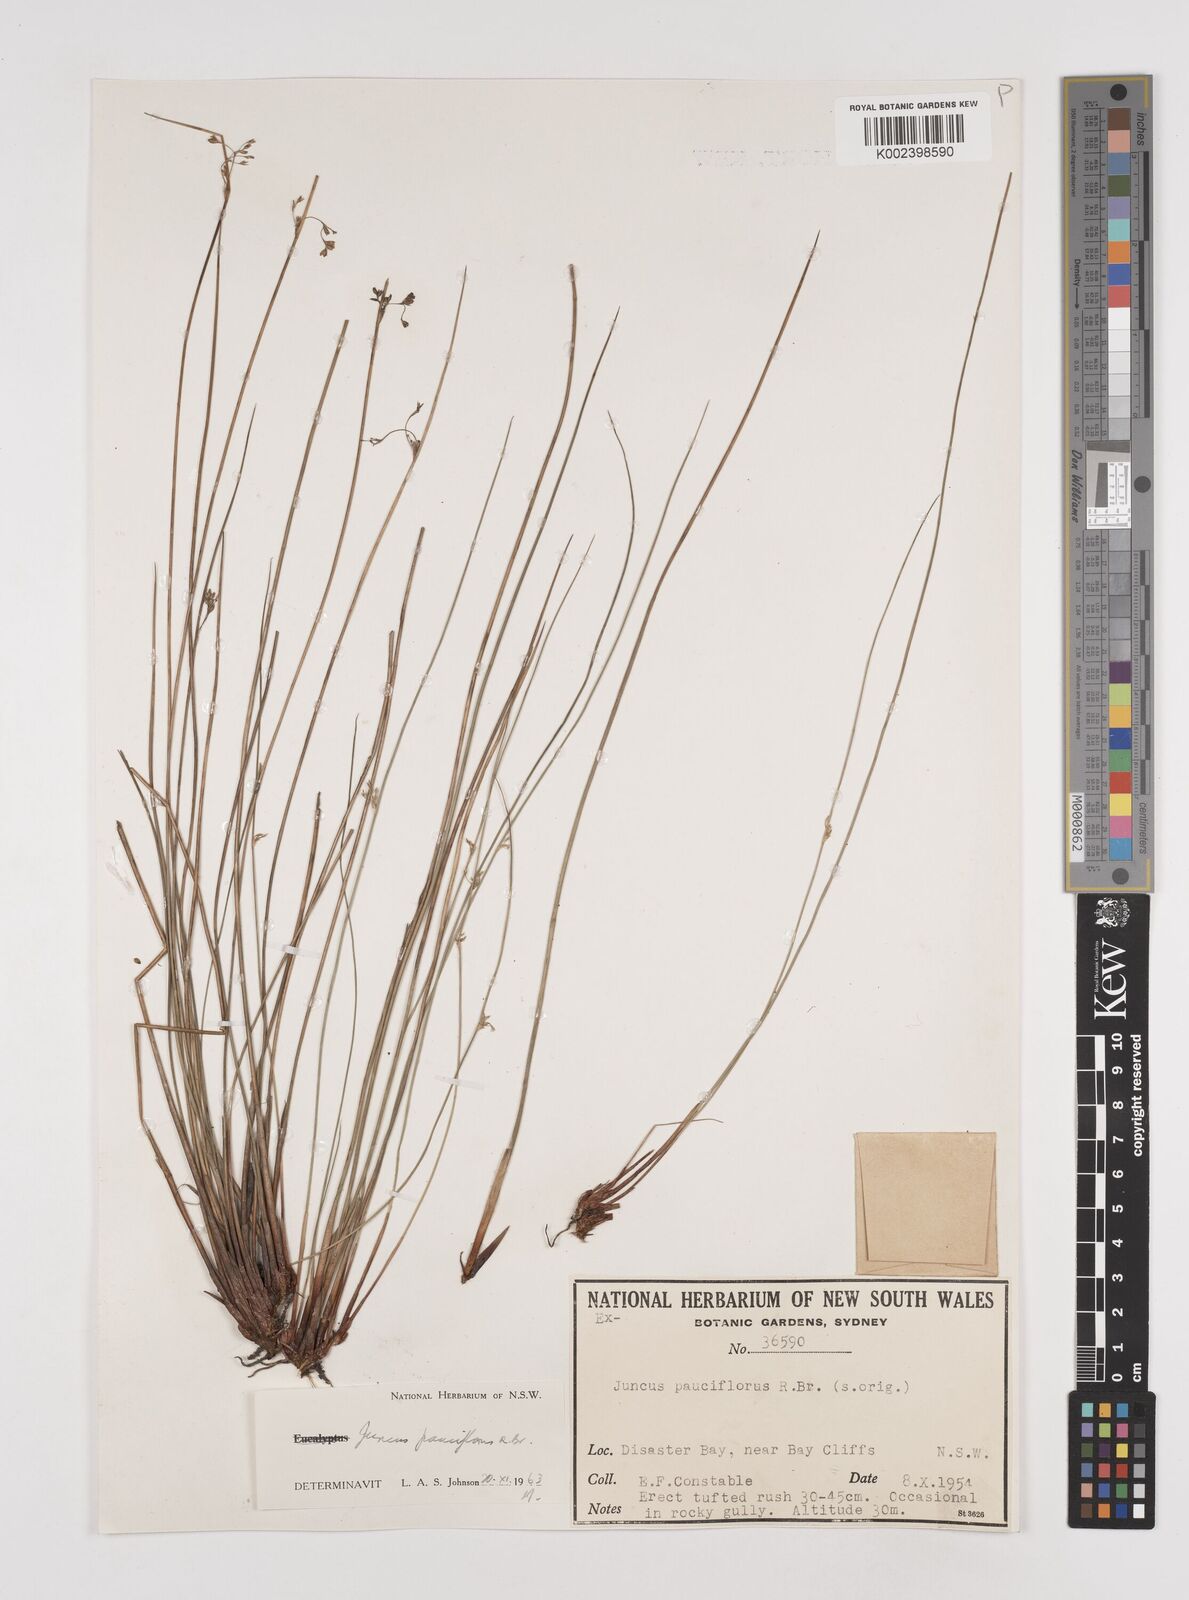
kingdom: Plantae
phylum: Tracheophyta
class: Liliopsida
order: Poales
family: Juncaceae
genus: Juncus
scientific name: Juncus pauciflorus
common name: Loose-flowered rush
